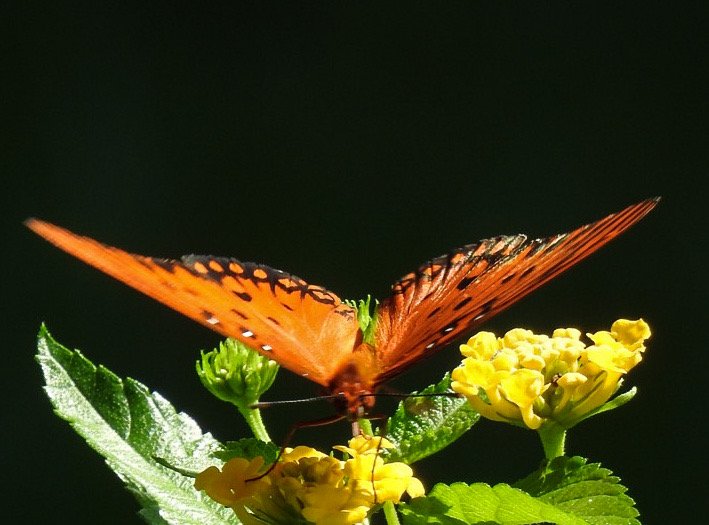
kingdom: Animalia
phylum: Arthropoda
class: Insecta
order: Lepidoptera
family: Nymphalidae
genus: Dione
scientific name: Dione vanillae
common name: Gulf Fritillary
